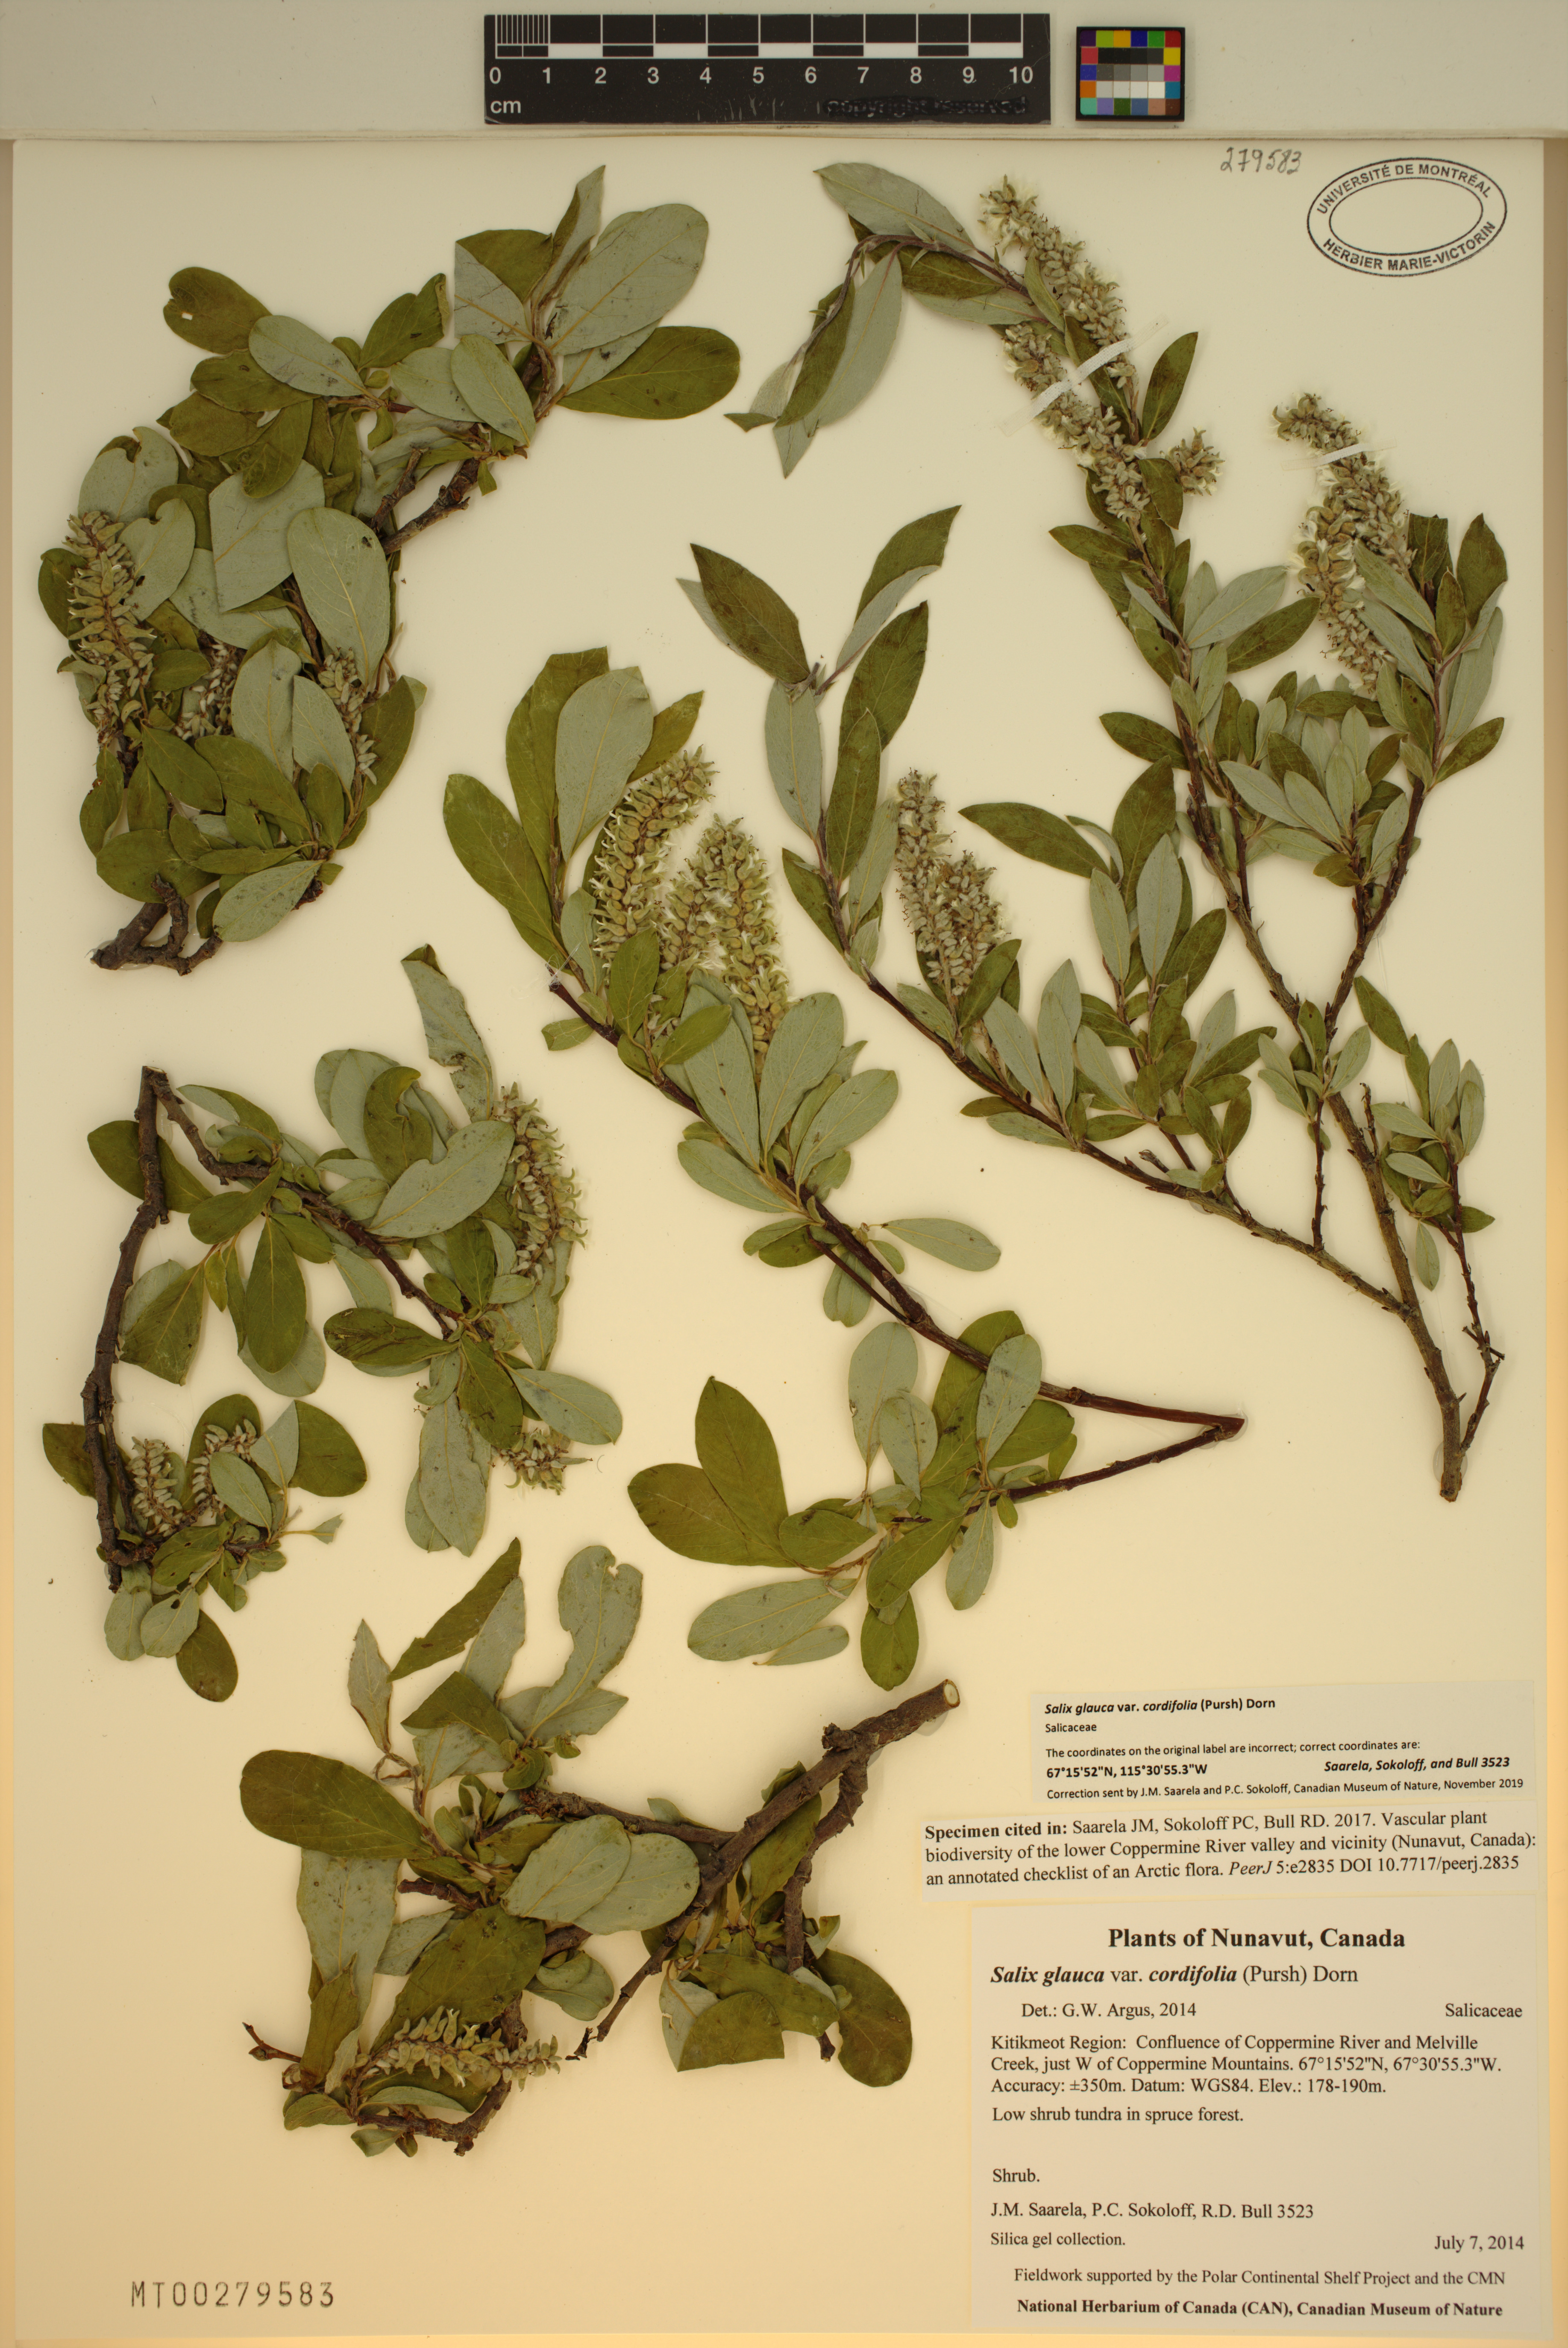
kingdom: Plantae
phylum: Tracheophyta
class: Magnoliopsida
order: Malpighiales
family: Salicaceae
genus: Salix
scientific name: Salix glauca
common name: Glaucous willow
